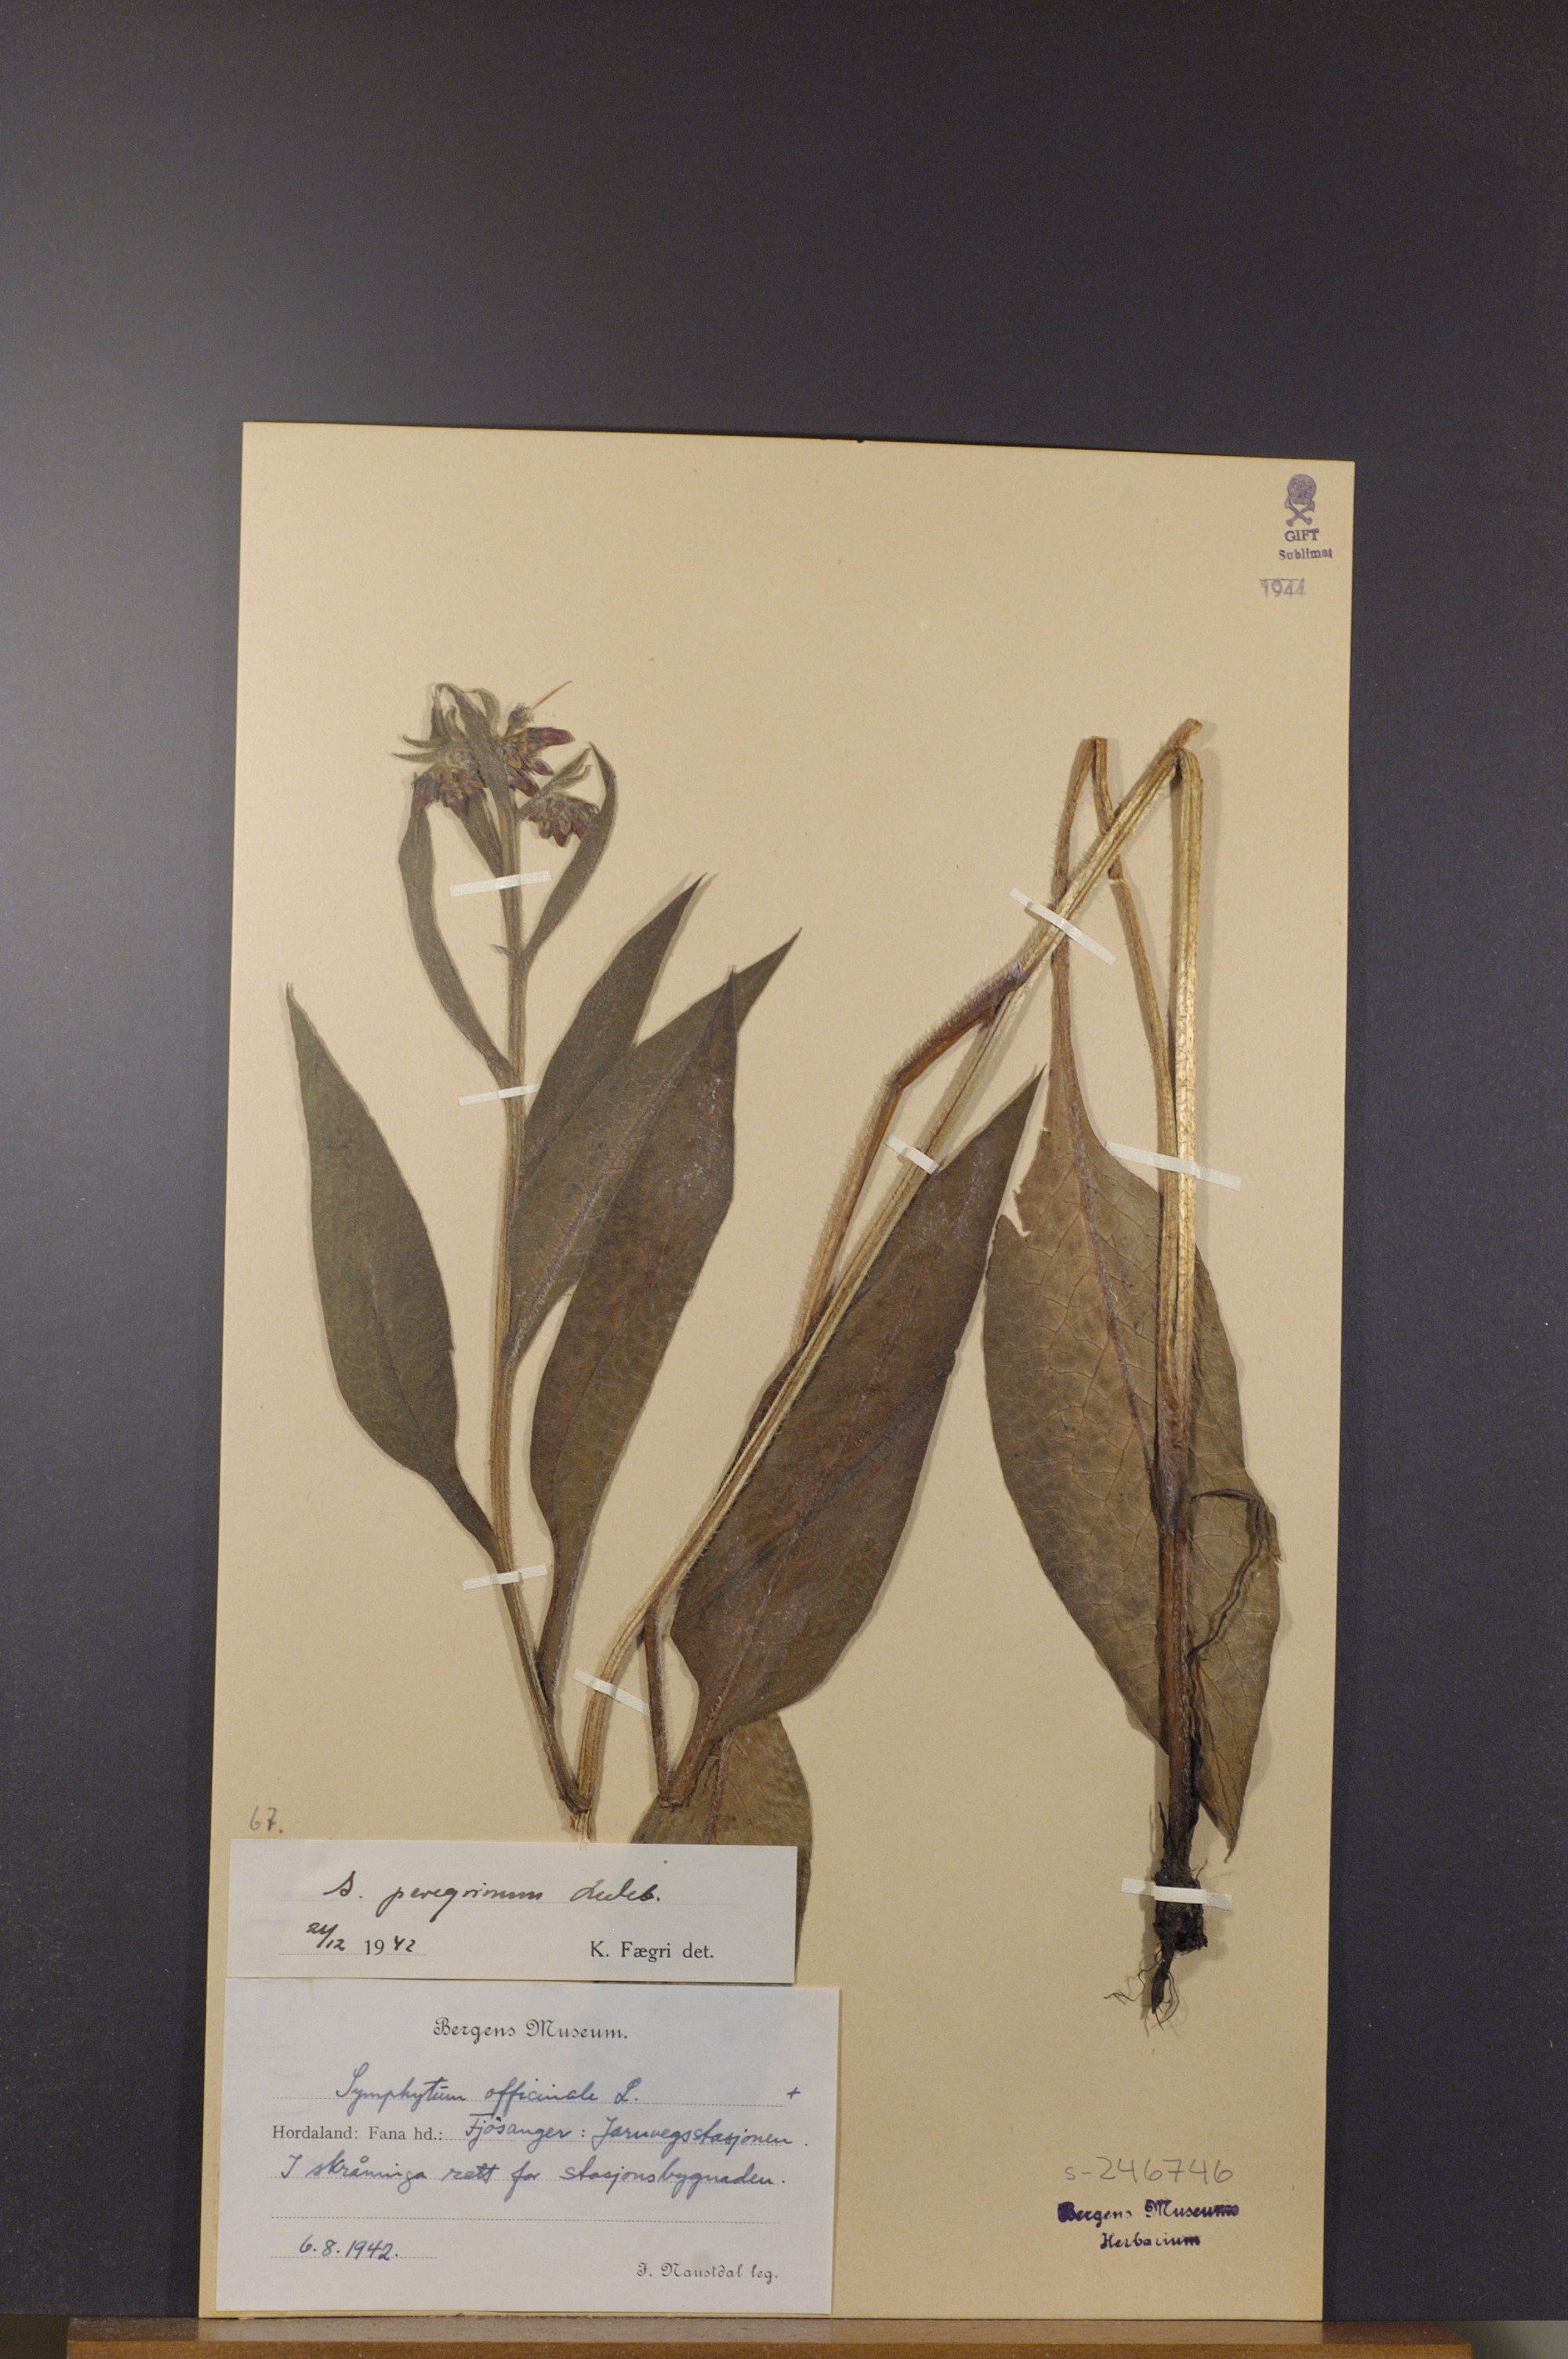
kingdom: Plantae
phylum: Tracheophyta
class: Magnoliopsida
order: Boraginales
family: Boraginaceae
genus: Symphytum
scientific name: Symphytum uplandicum
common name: Russian comfrey
